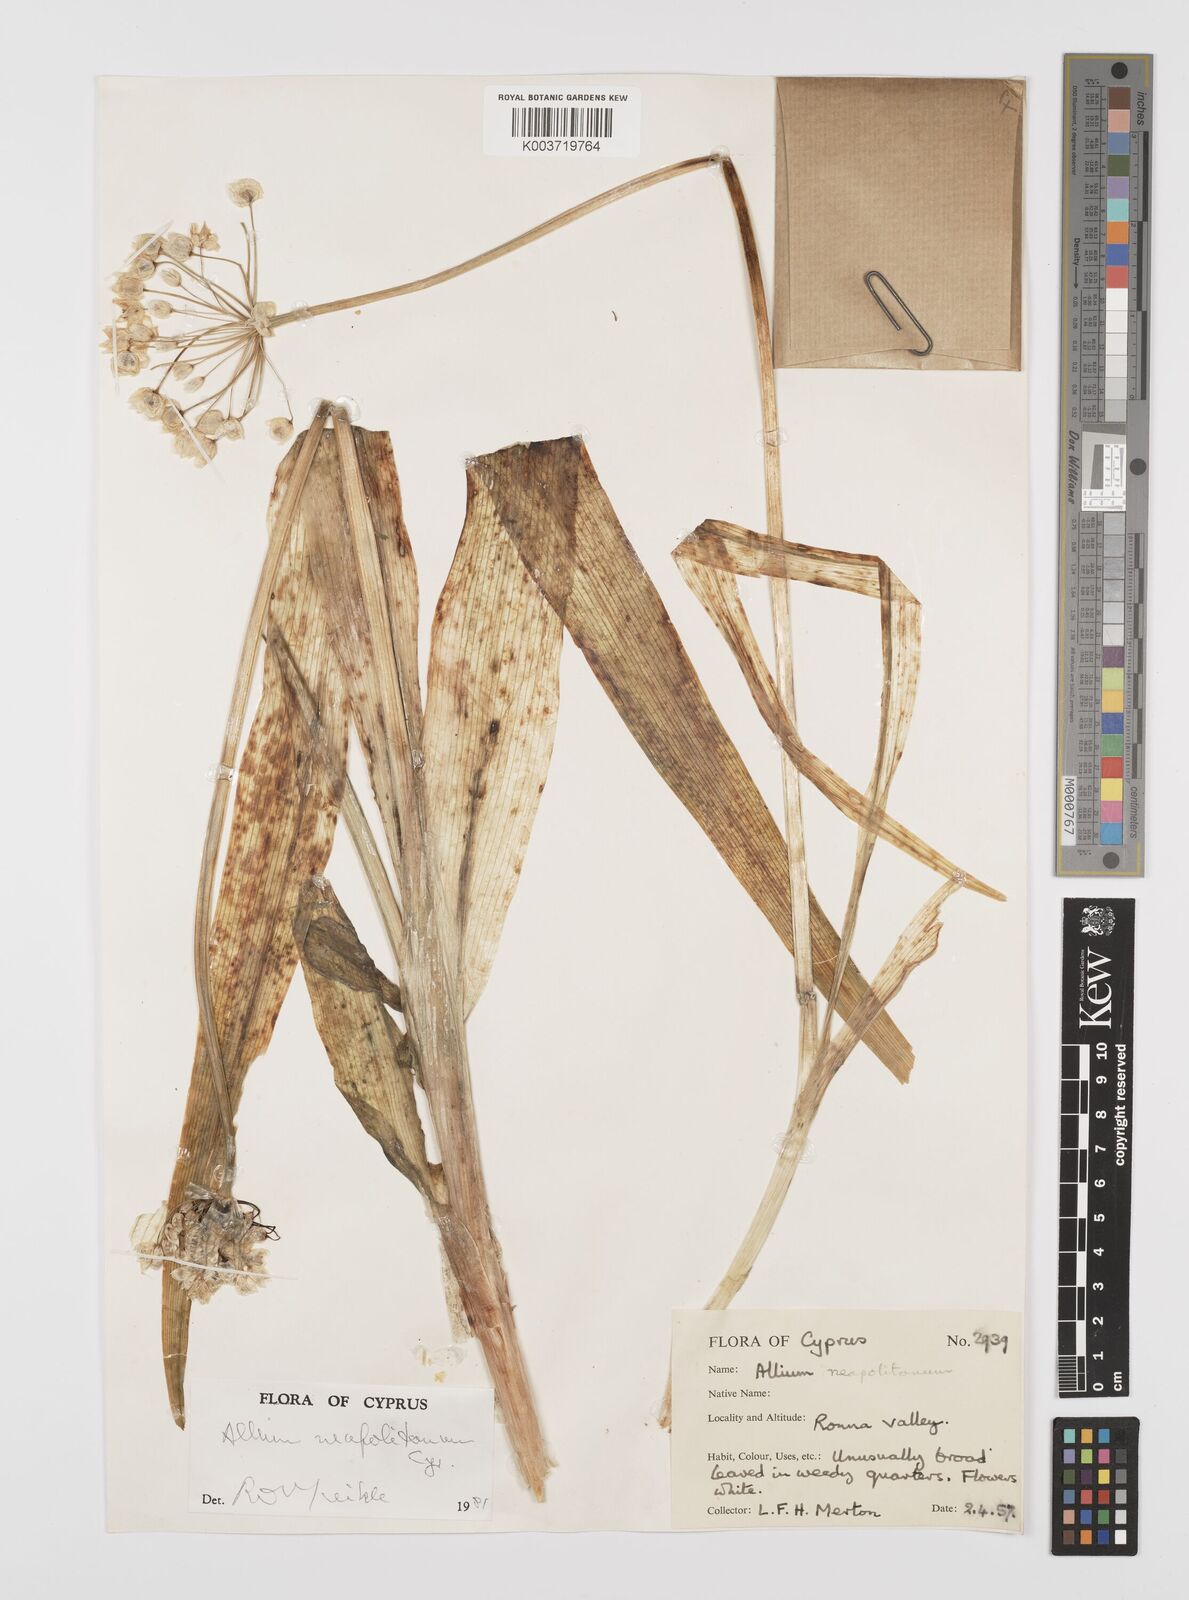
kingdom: Plantae
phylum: Tracheophyta
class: Liliopsida
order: Asparagales
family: Amaryllidaceae
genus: Allium
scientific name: Allium neapolitanum
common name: Neapolitan garlic
